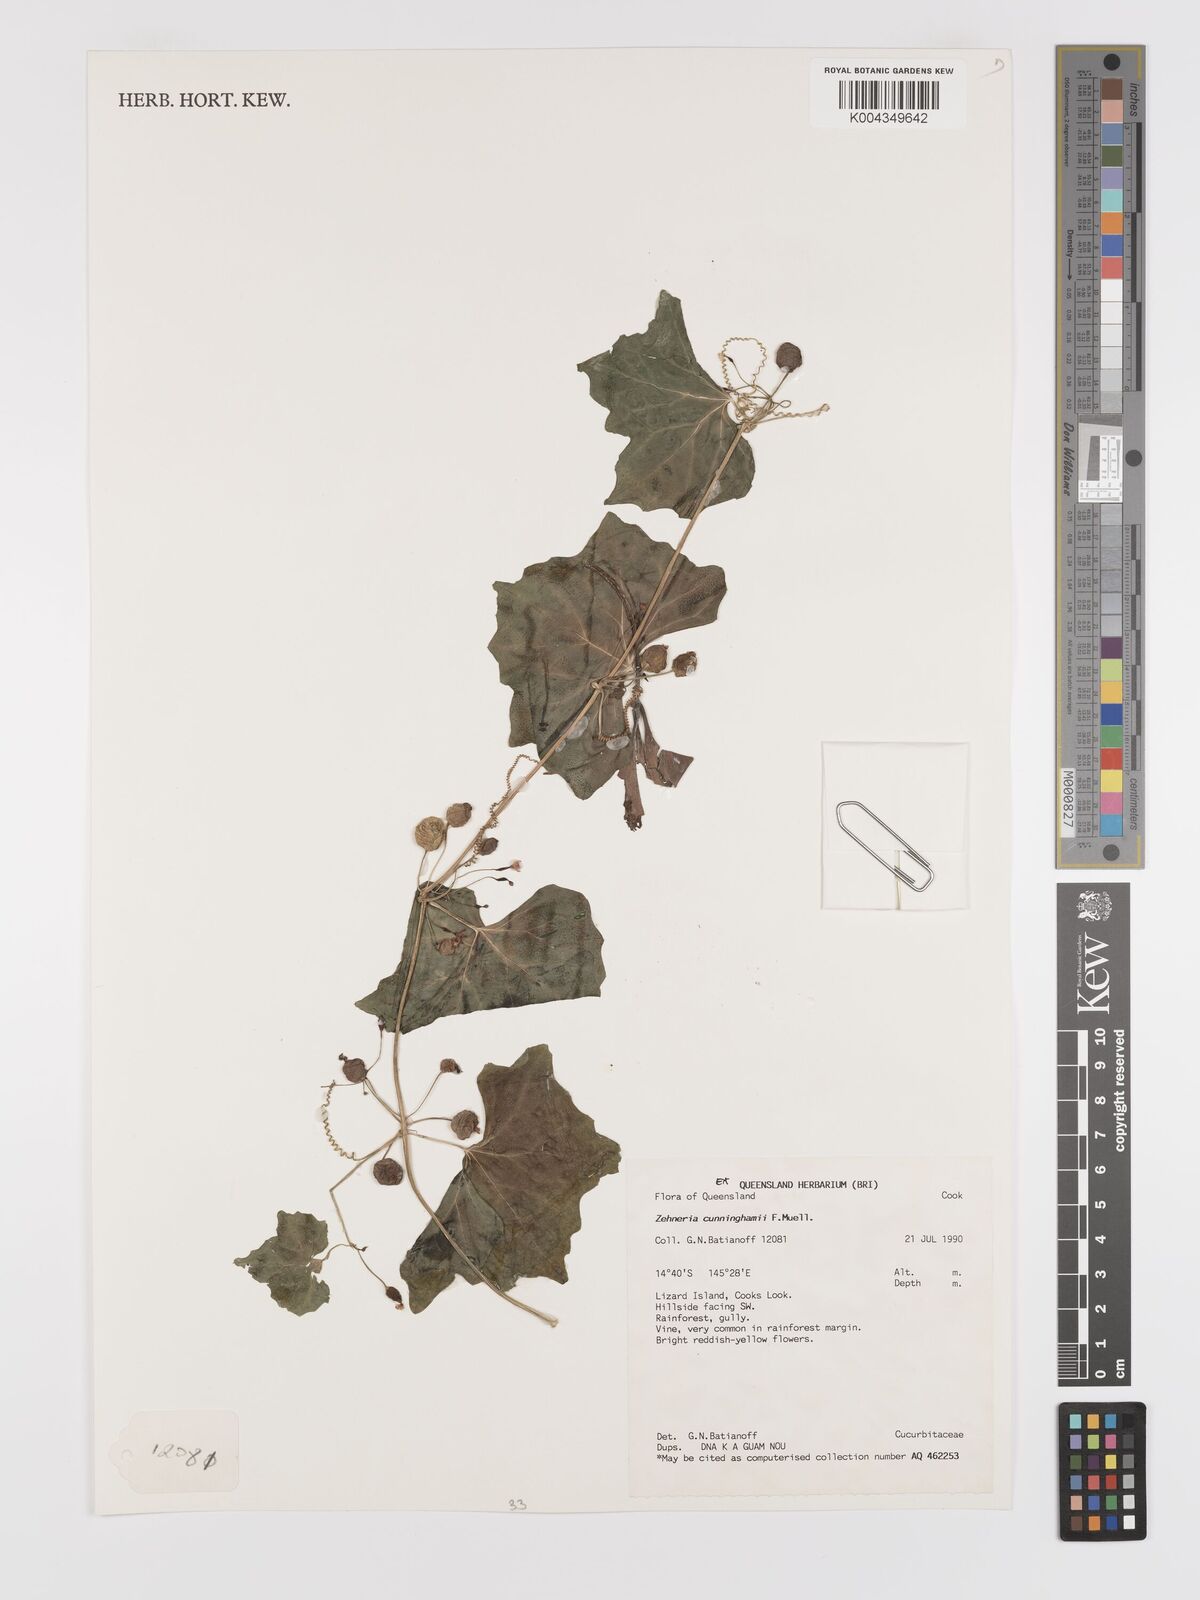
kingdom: Plantae
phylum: Tracheophyta
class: Magnoliopsida
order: Cucurbitales
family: Cucurbitaceae
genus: Zehneria
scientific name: Zehneria cunninghamii
